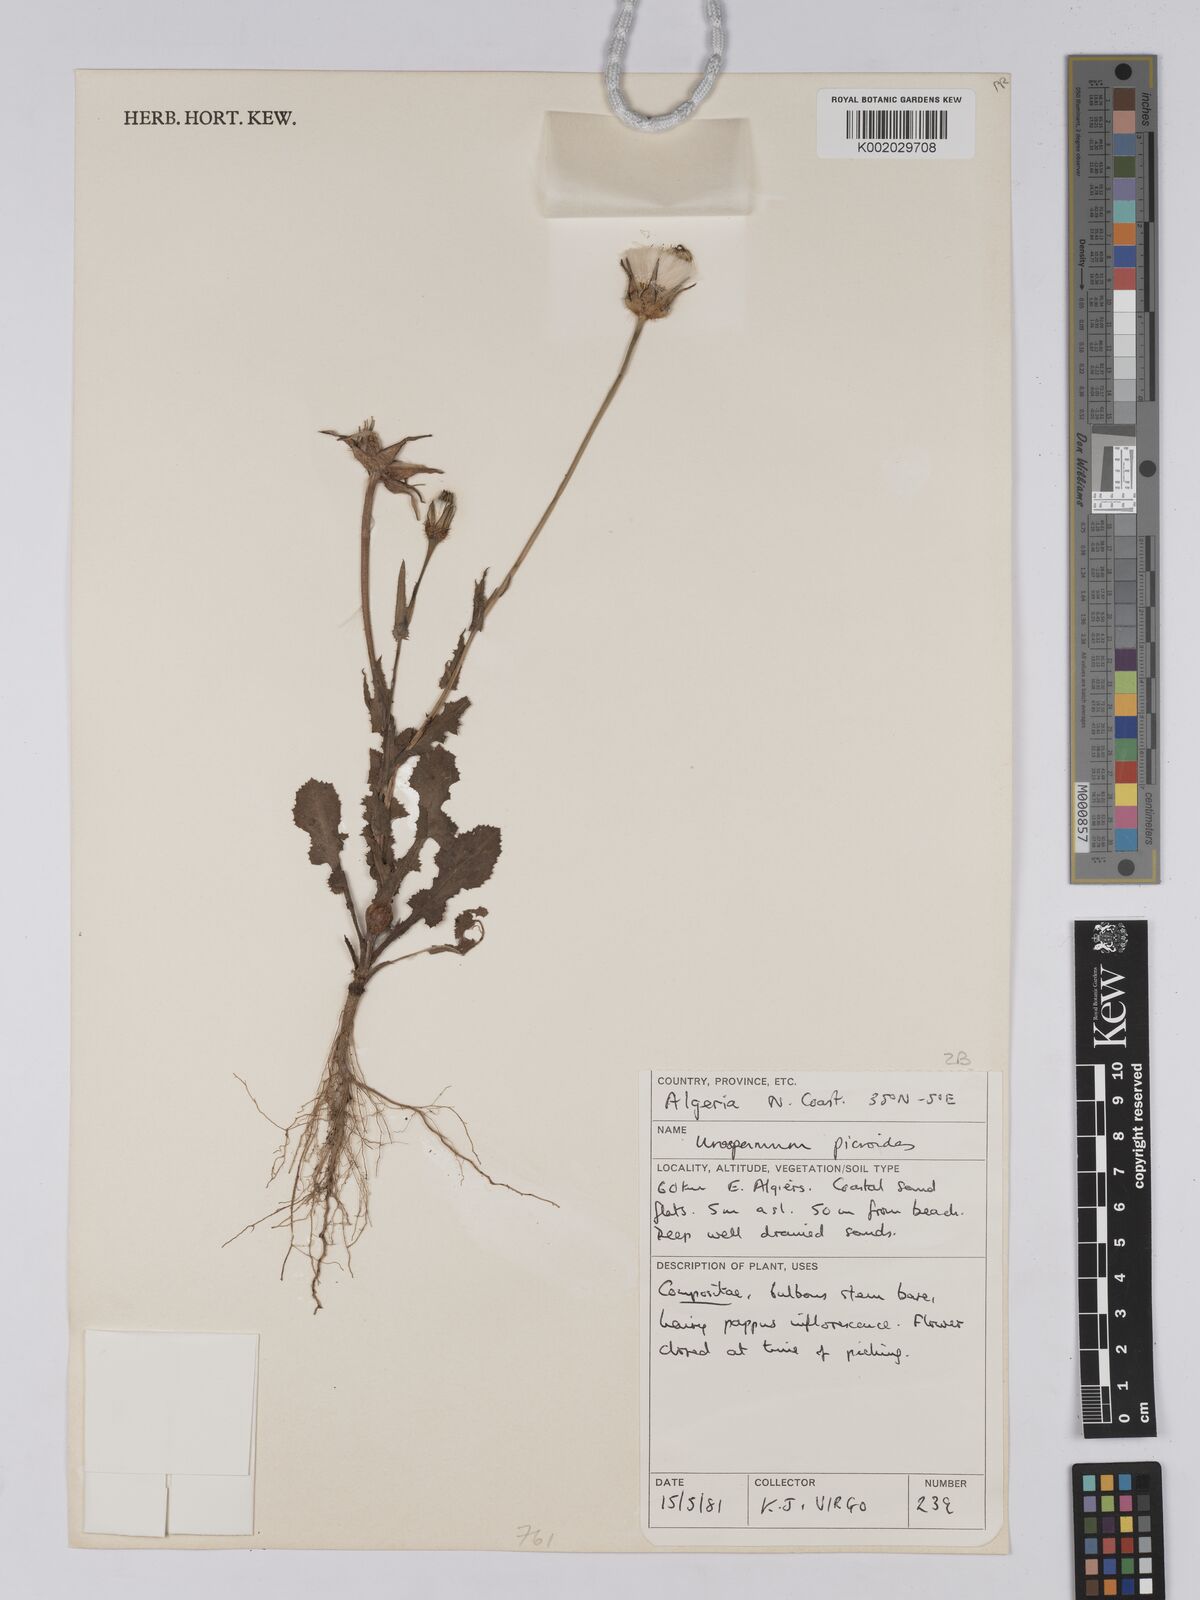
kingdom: Plantae
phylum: Tracheophyta
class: Magnoliopsida
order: Asterales
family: Asteraceae
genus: Urospermum
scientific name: Urospermum picroides
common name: False hawkbit
